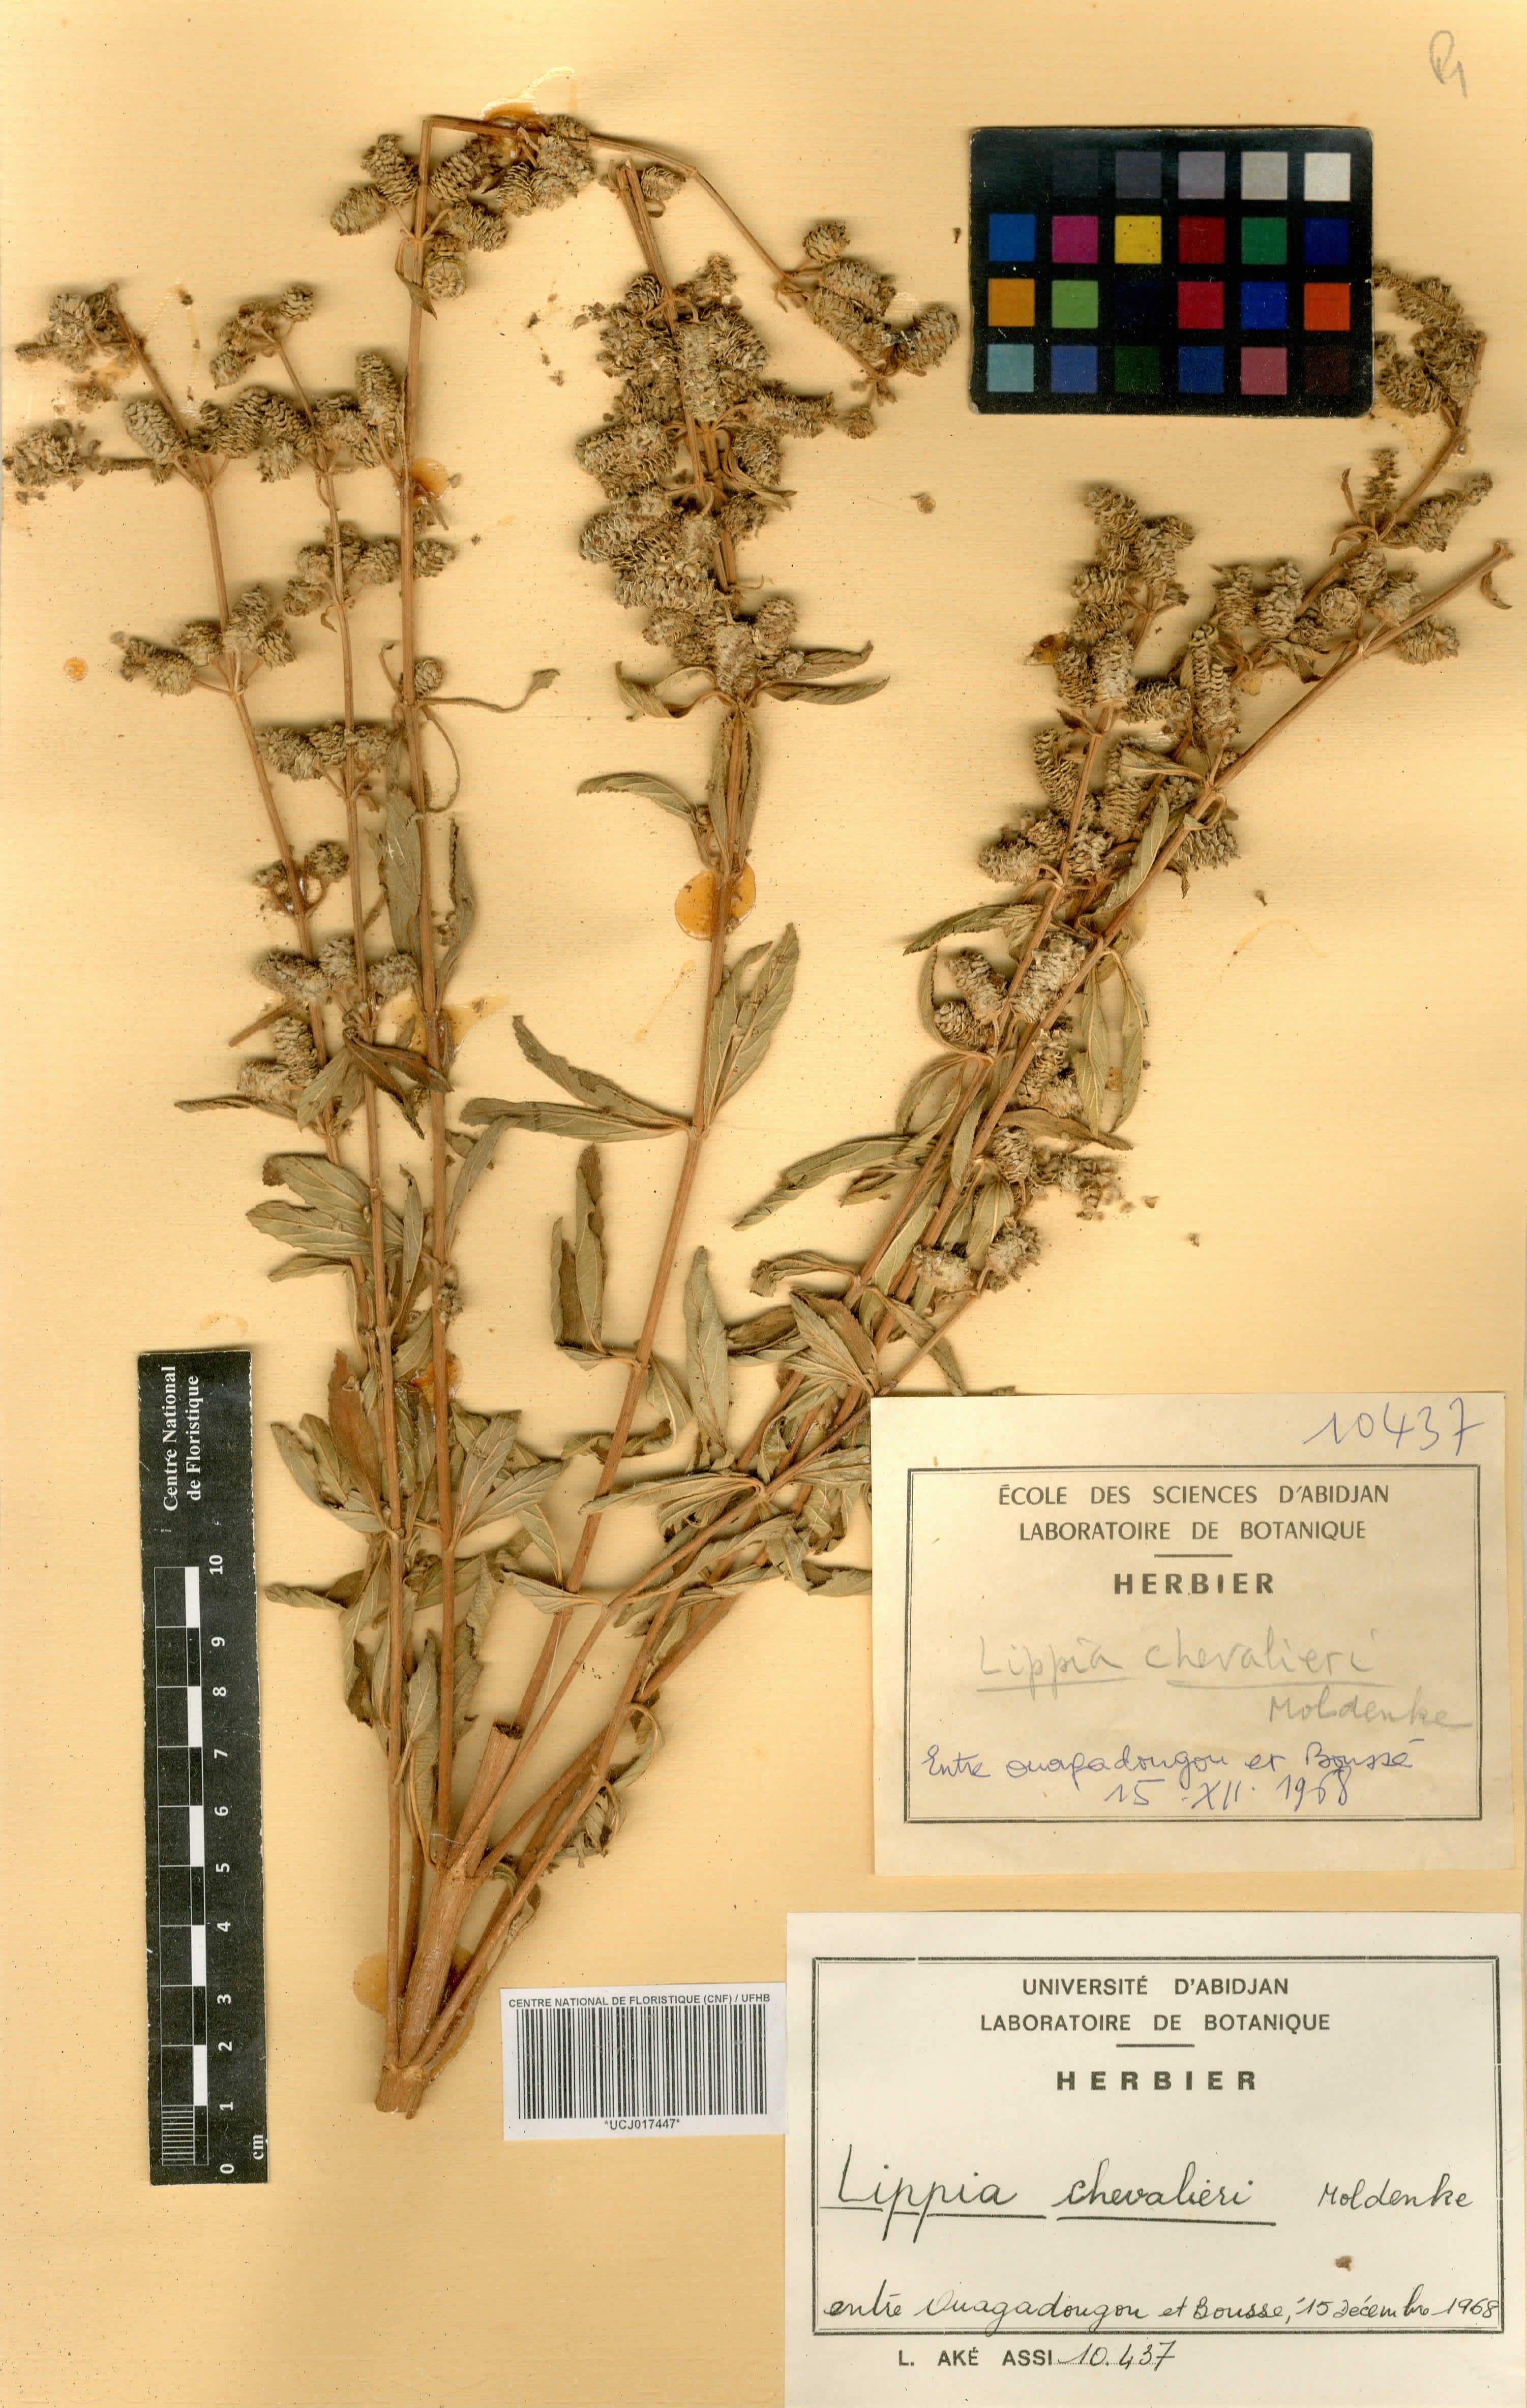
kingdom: Plantae
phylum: Tracheophyta
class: Magnoliopsida
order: Lamiales
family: Verbenaceae
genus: Lippia
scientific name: Lippia chevalieri
